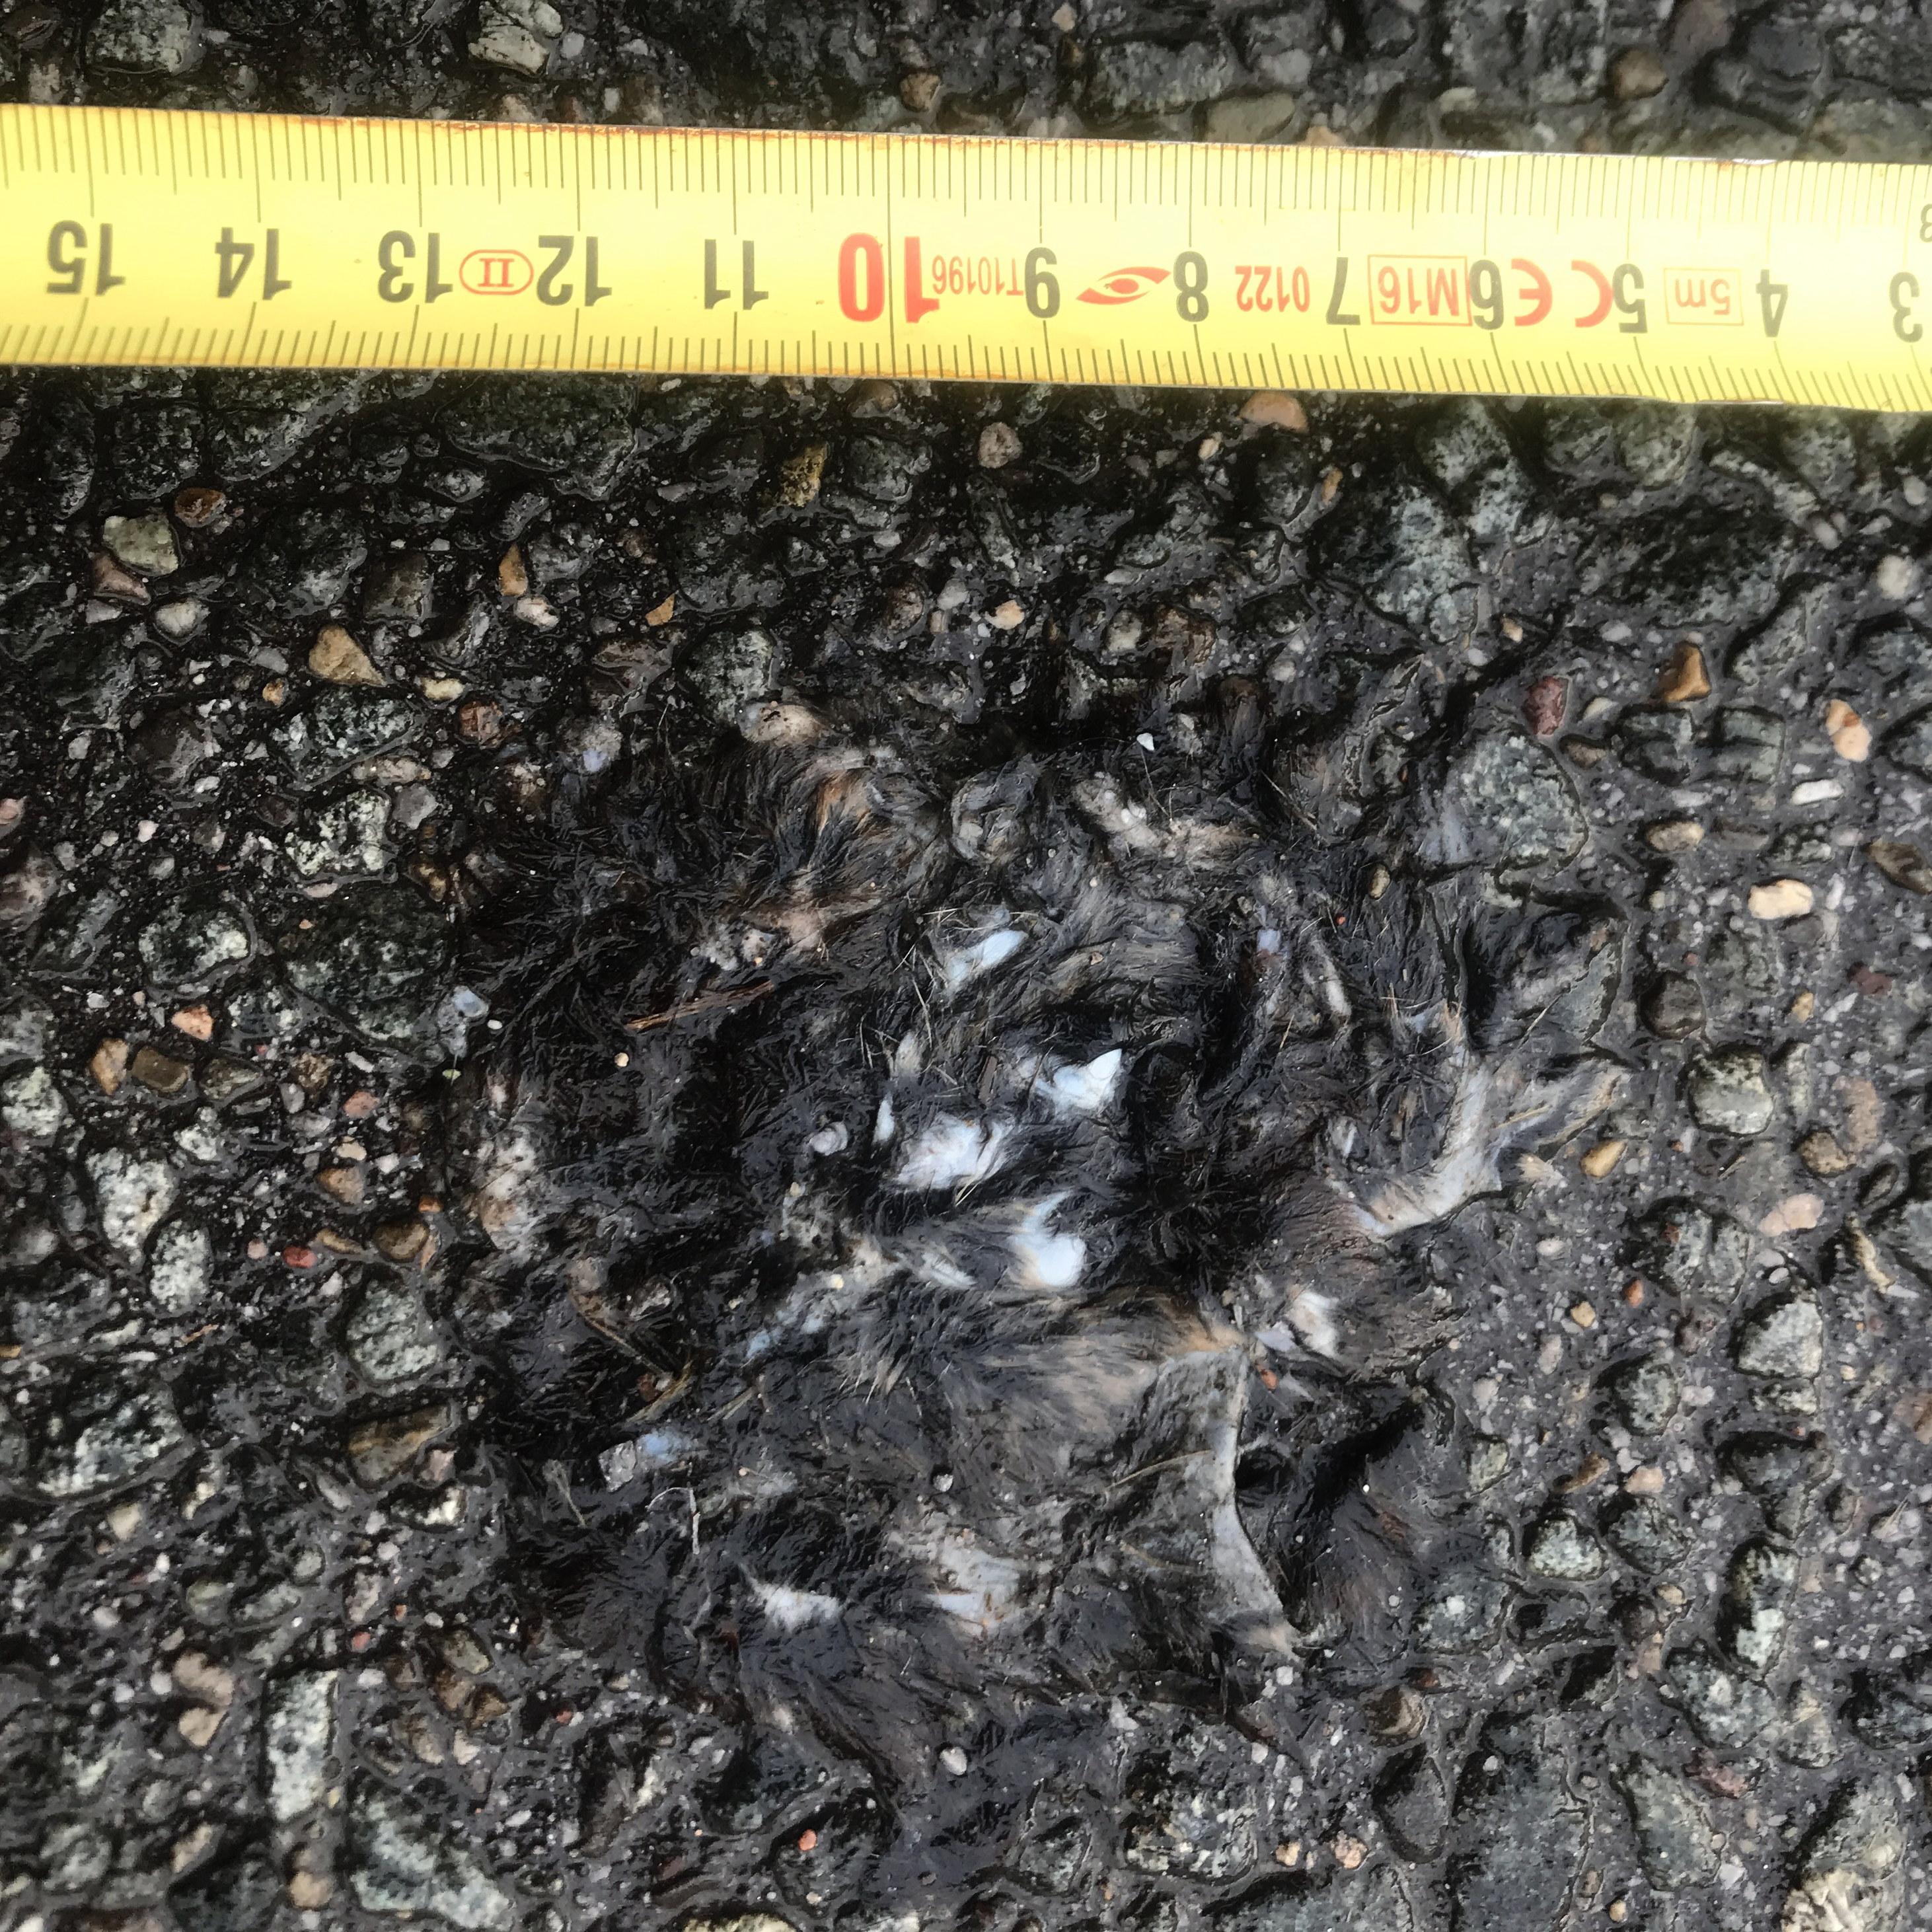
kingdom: Animalia
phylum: Chordata
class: Mammalia
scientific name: Mammalia
